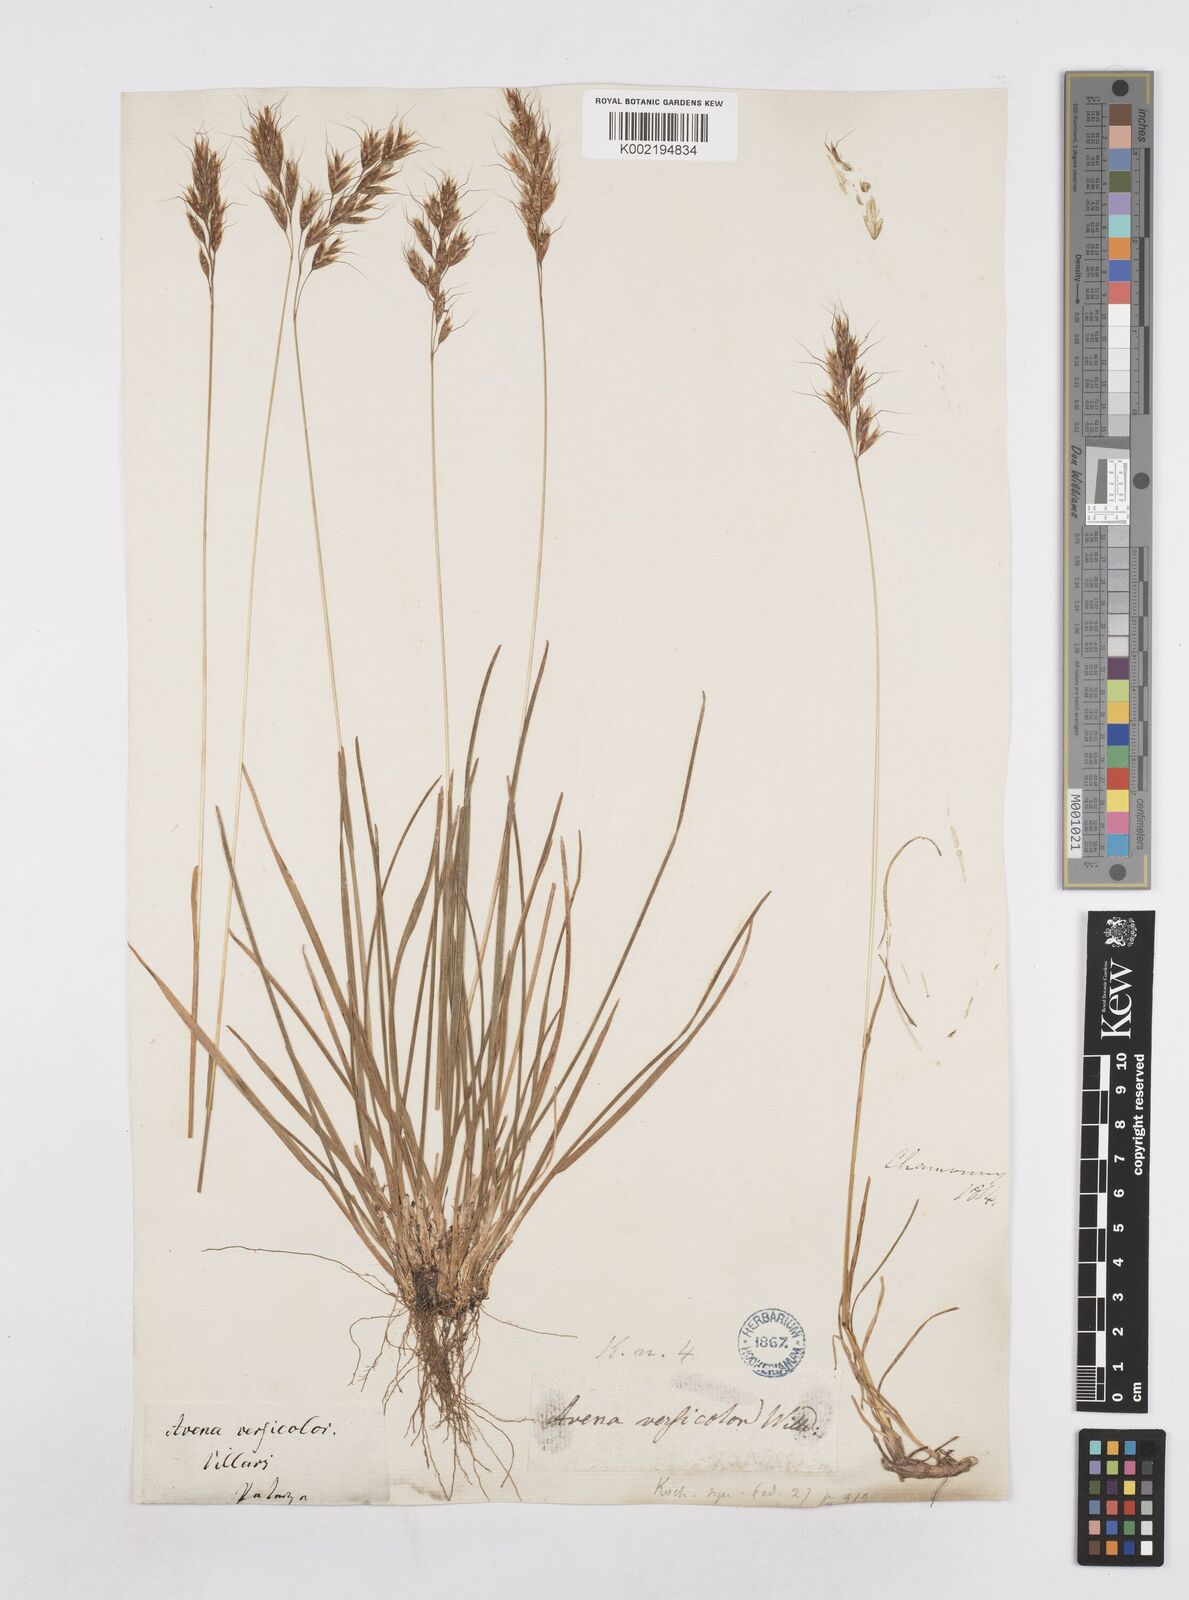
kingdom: Plantae
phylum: Tracheophyta
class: Liliopsida
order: Poales
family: Poaceae
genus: Helictotrichon
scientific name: Helictotrichon
